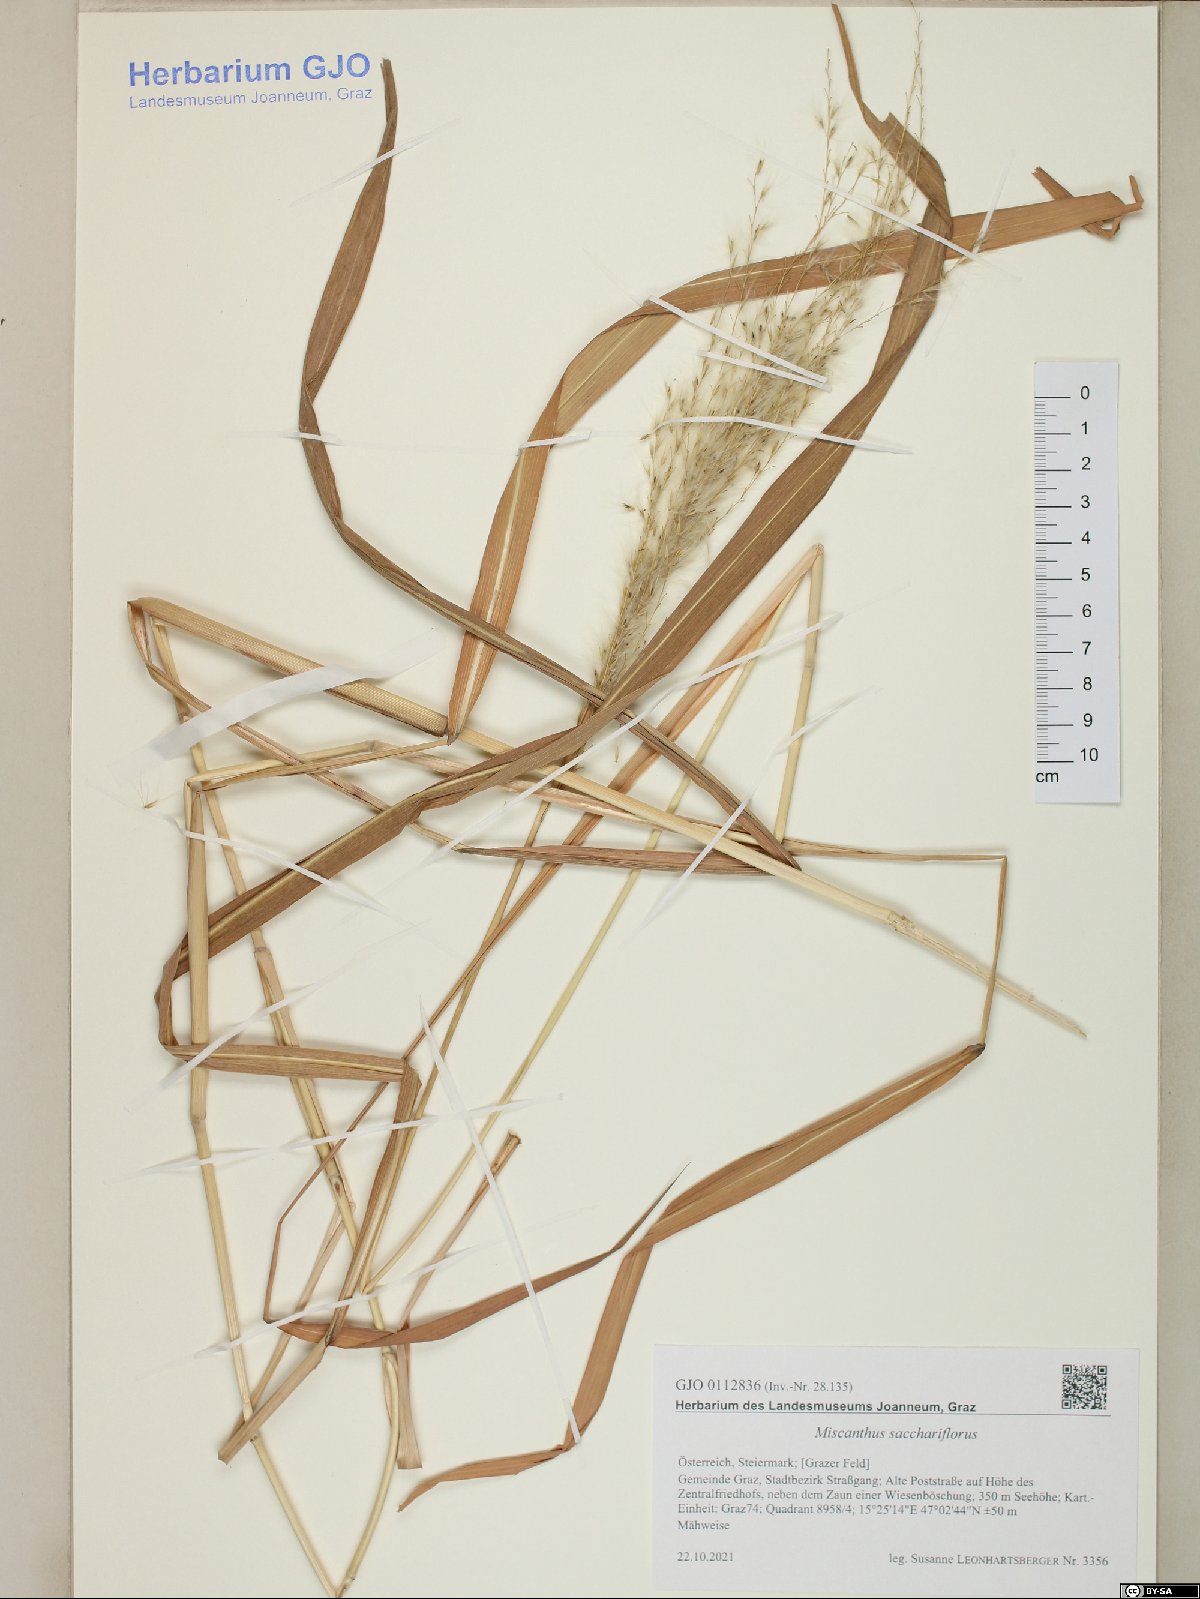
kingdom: Plantae
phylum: Tracheophyta
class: Liliopsida
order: Poales
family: Poaceae
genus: Miscanthus
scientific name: Miscanthus sacchariflorus
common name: Amur silver grass
